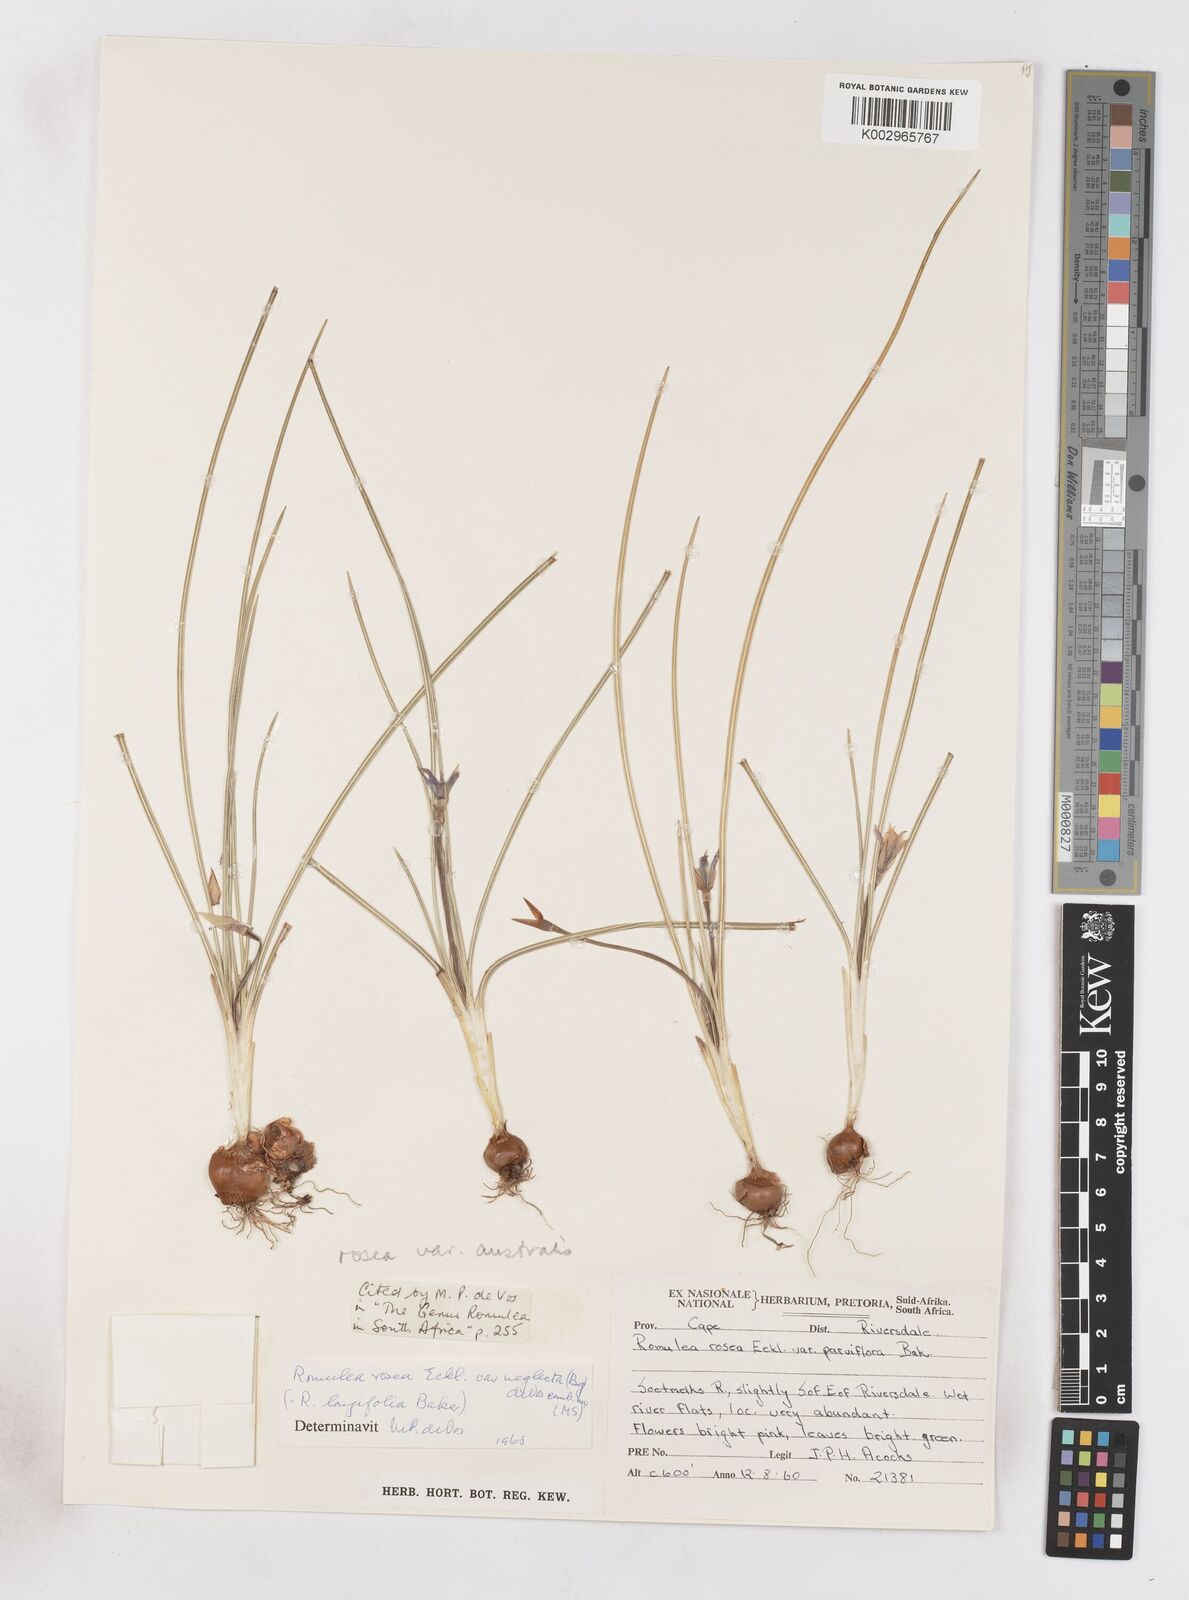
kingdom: Plantae
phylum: Tracheophyta
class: Liliopsida
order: Asparagales
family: Iridaceae
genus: Romulea
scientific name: Romulea rosea
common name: Oniongrass
